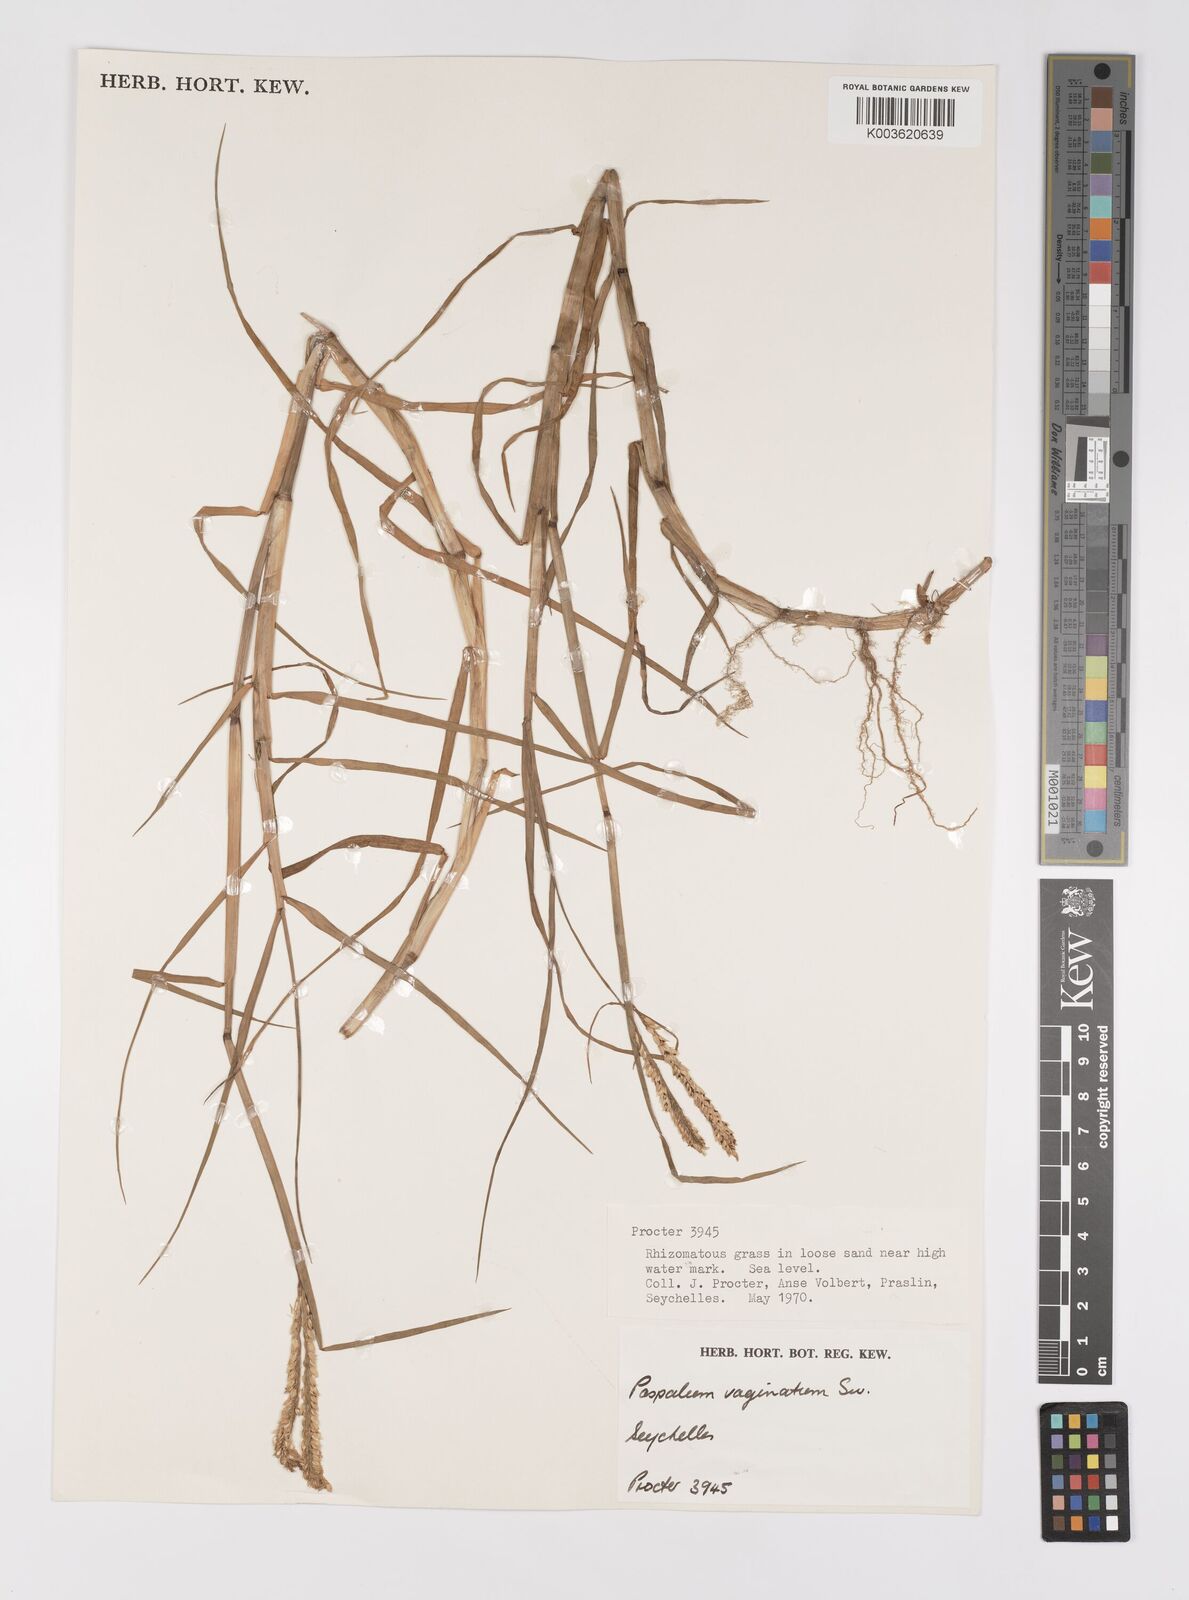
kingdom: Plantae
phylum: Tracheophyta
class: Liliopsida
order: Poales
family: Poaceae
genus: Paspalum
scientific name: Paspalum vaginatum
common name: Seashore paspalum
